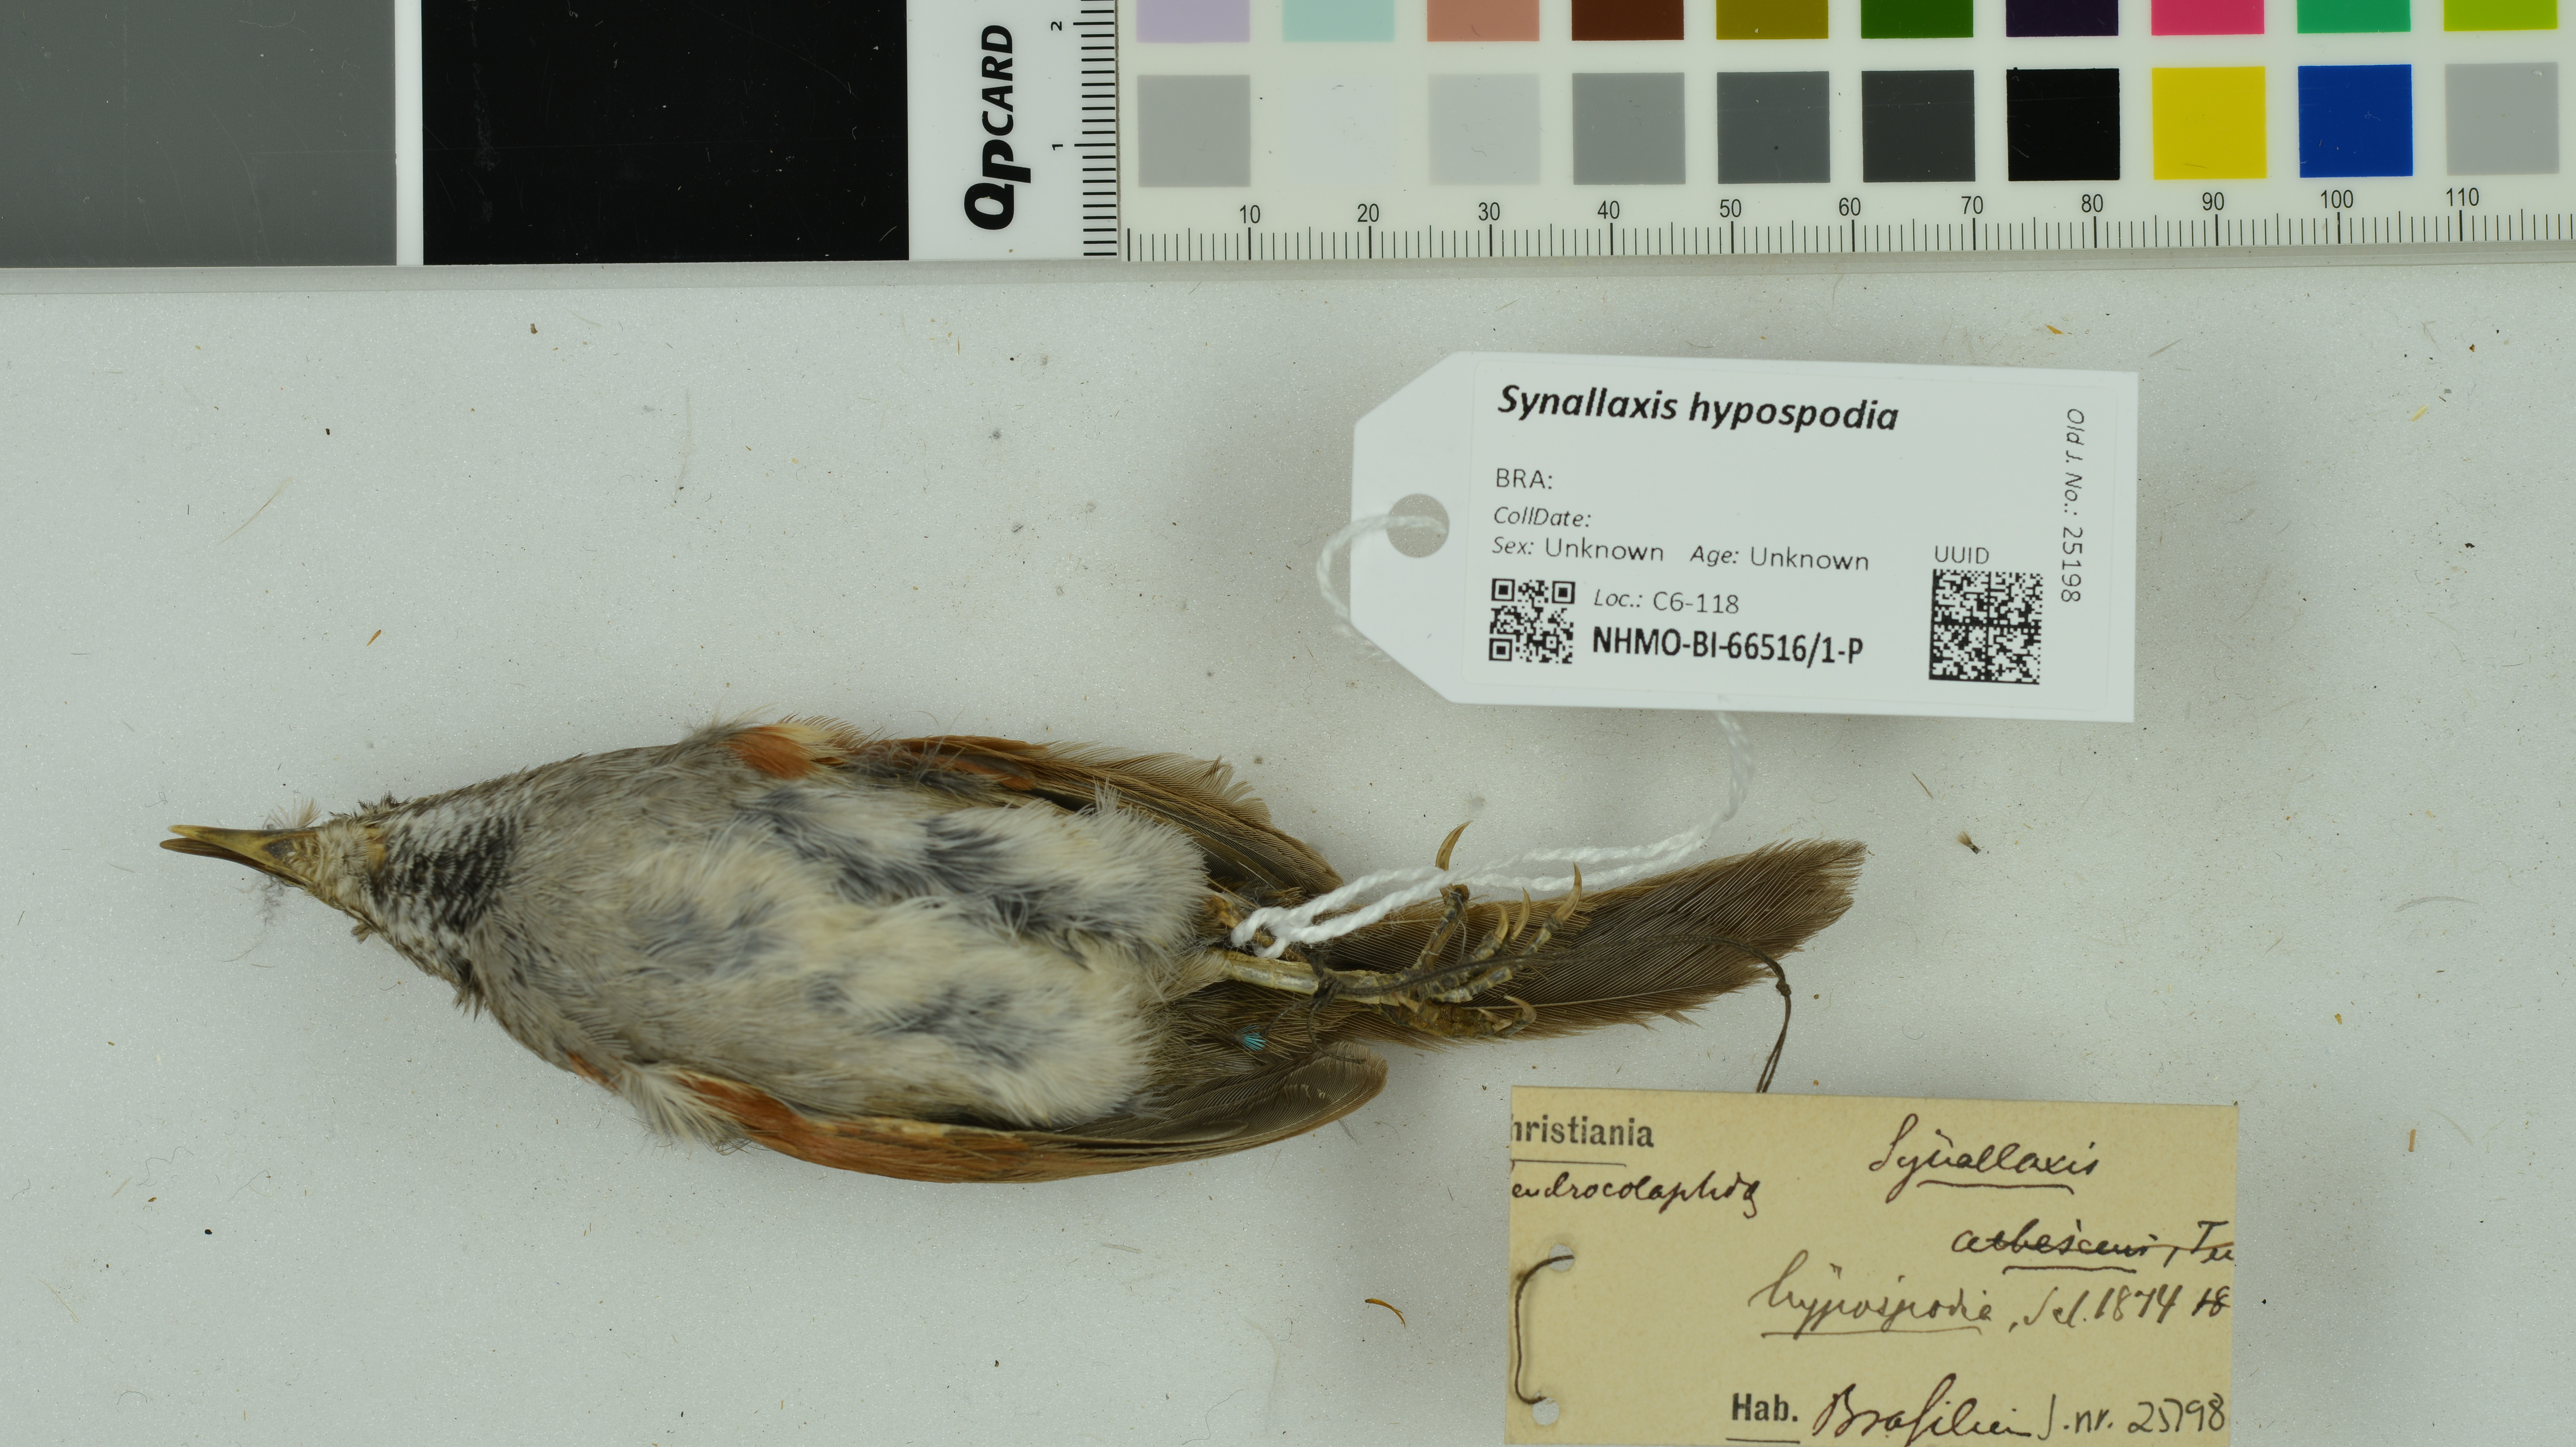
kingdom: Animalia
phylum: Chordata
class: Aves
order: Passeriformes
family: Furnariidae
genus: Synallaxis
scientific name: Synallaxis hypospodia
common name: Cinereous-breasted spinetail
